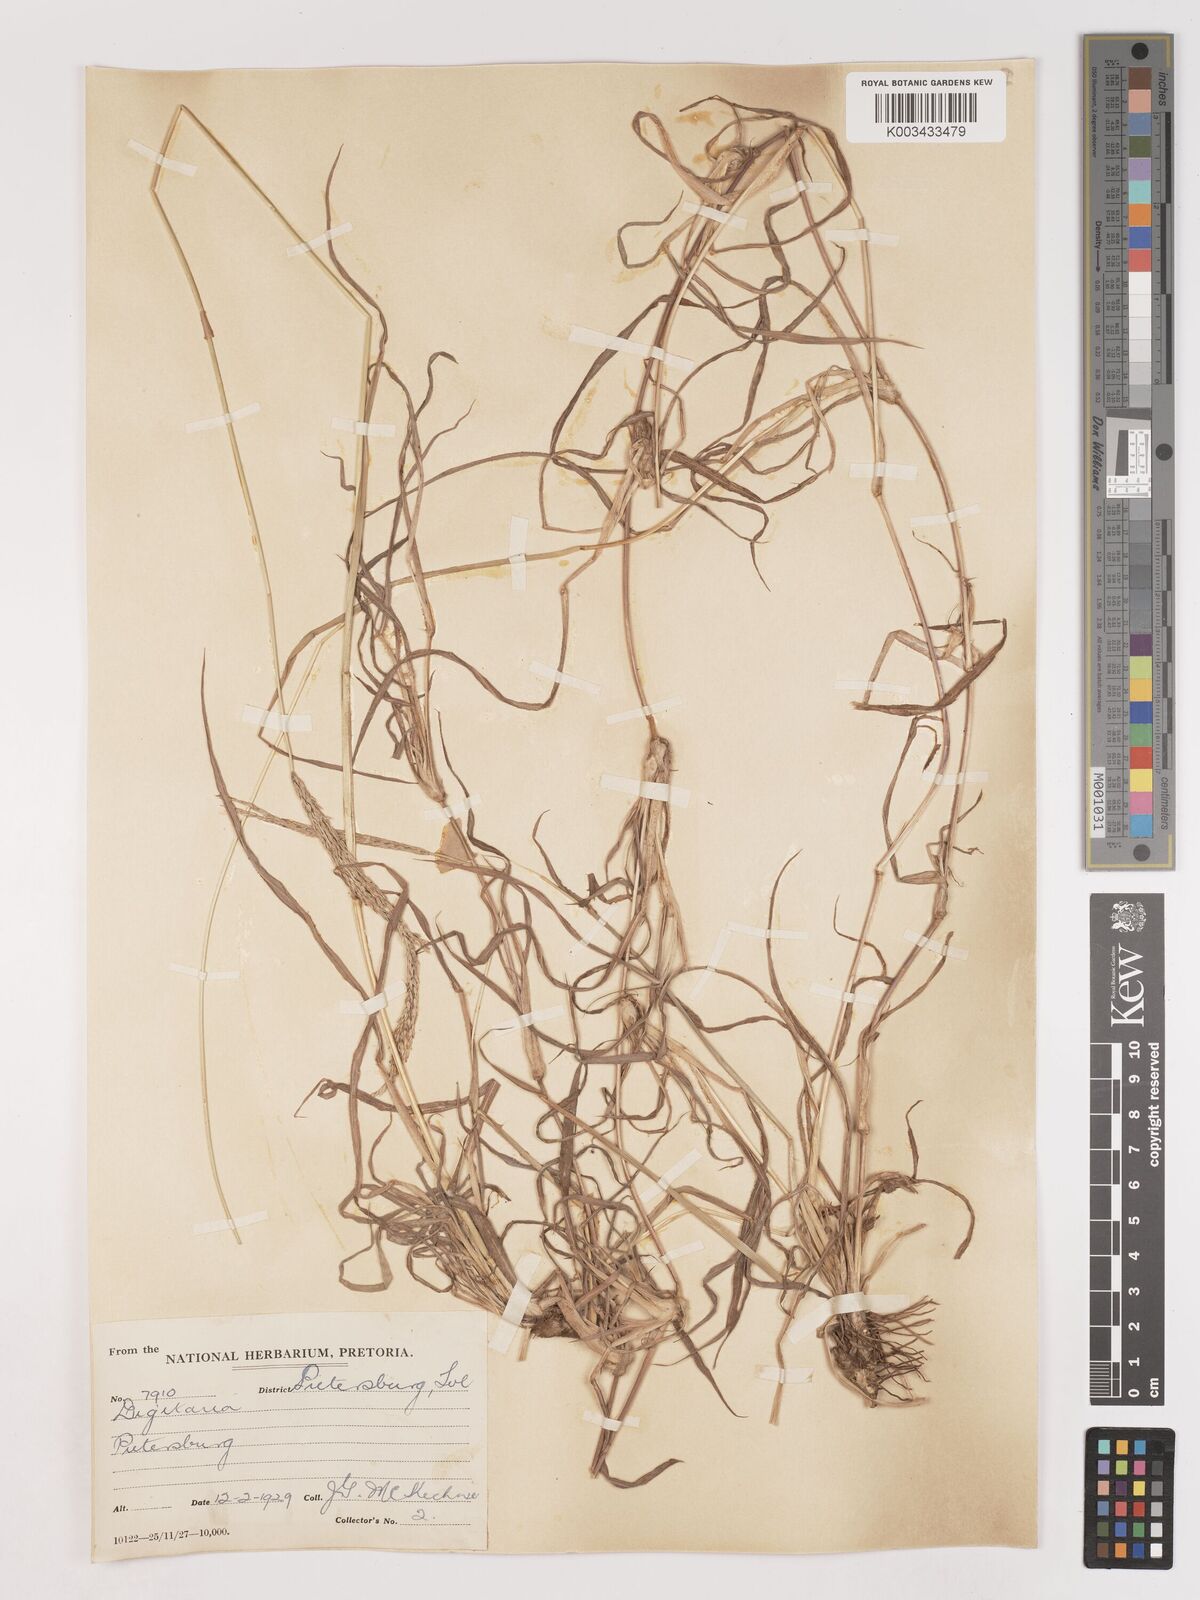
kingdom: Plantae
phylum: Tracheophyta
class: Liliopsida
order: Poales
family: Poaceae
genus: Digitaria
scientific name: Digitaria eriantha
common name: Digitgrass
